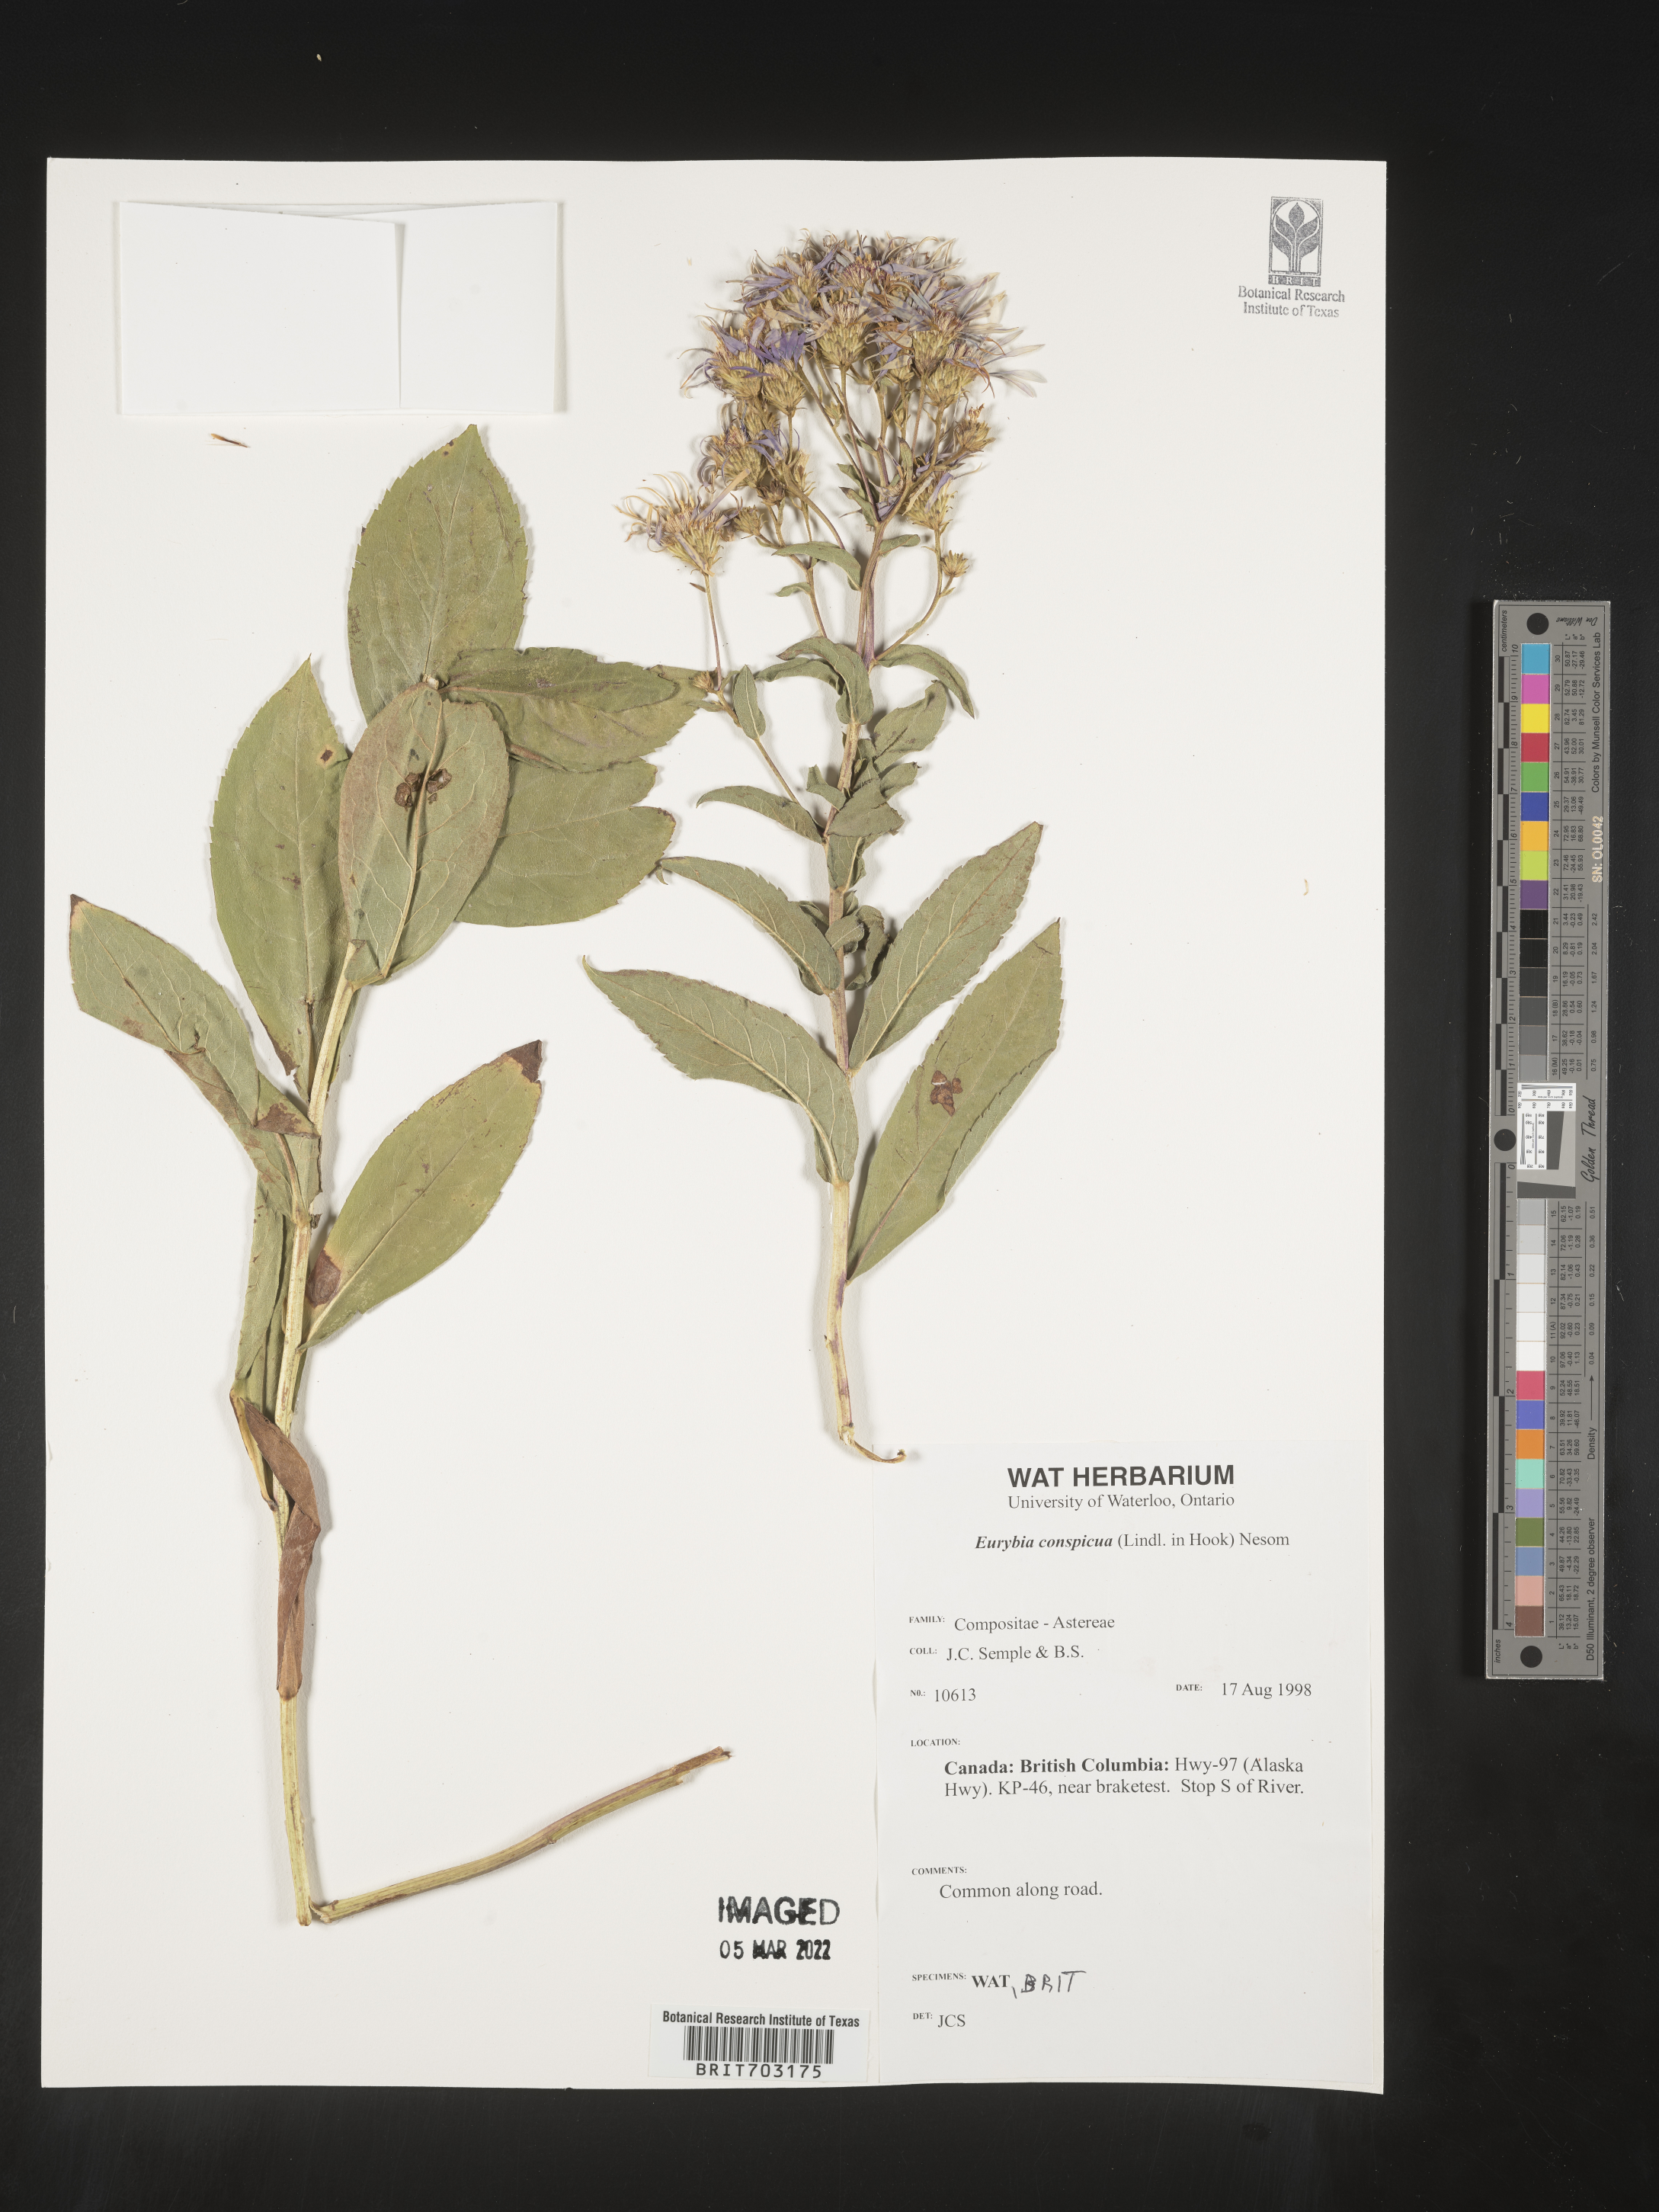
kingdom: Plantae
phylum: Tracheophyta
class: Magnoliopsida
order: Asterales
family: Asteraceae
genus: Eurybia
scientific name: Eurybia conspicua
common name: Showy aster
